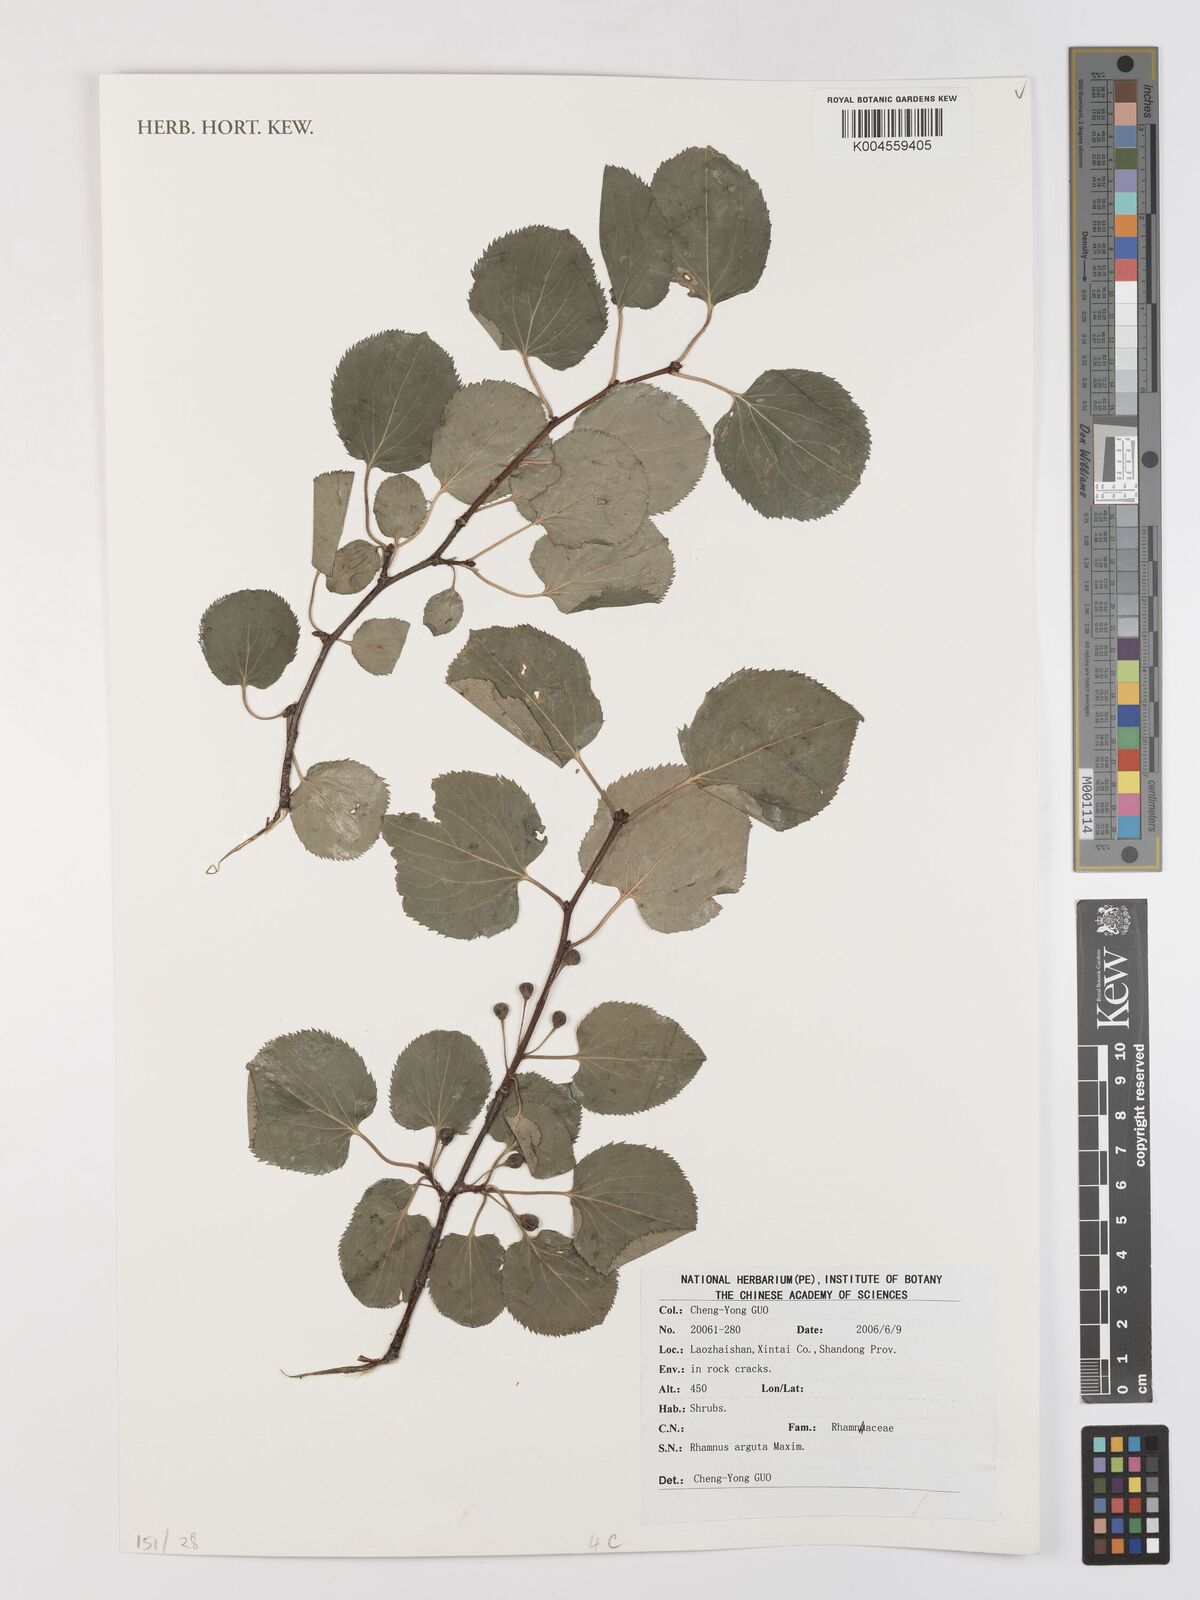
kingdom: Plantae
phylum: Tracheophyta
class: Magnoliopsida
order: Rosales
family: Rhamnaceae
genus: Rhamnus
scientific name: Rhamnus arguta
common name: Sharp-tooth buckthorn
